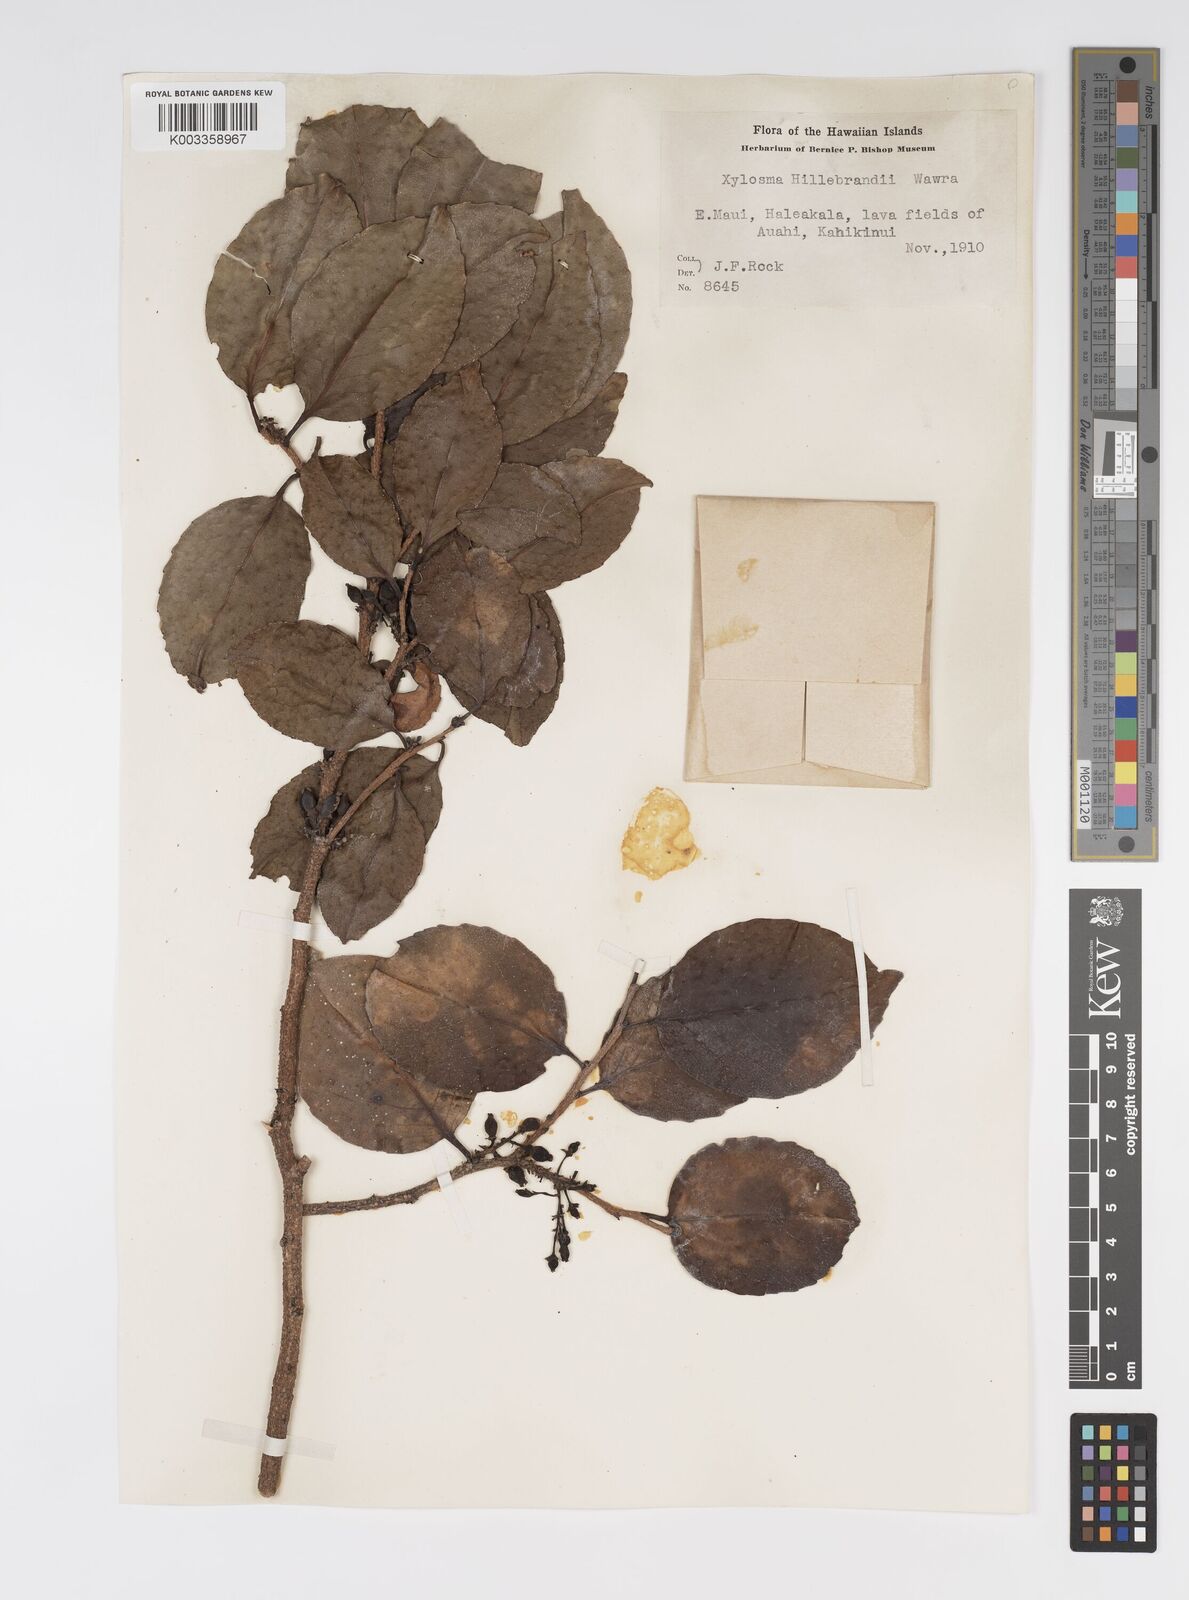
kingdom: Plantae
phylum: Tracheophyta
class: Magnoliopsida
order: Malpighiales
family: Salicaceae
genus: Xylosma
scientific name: Xylosma hawaiense
